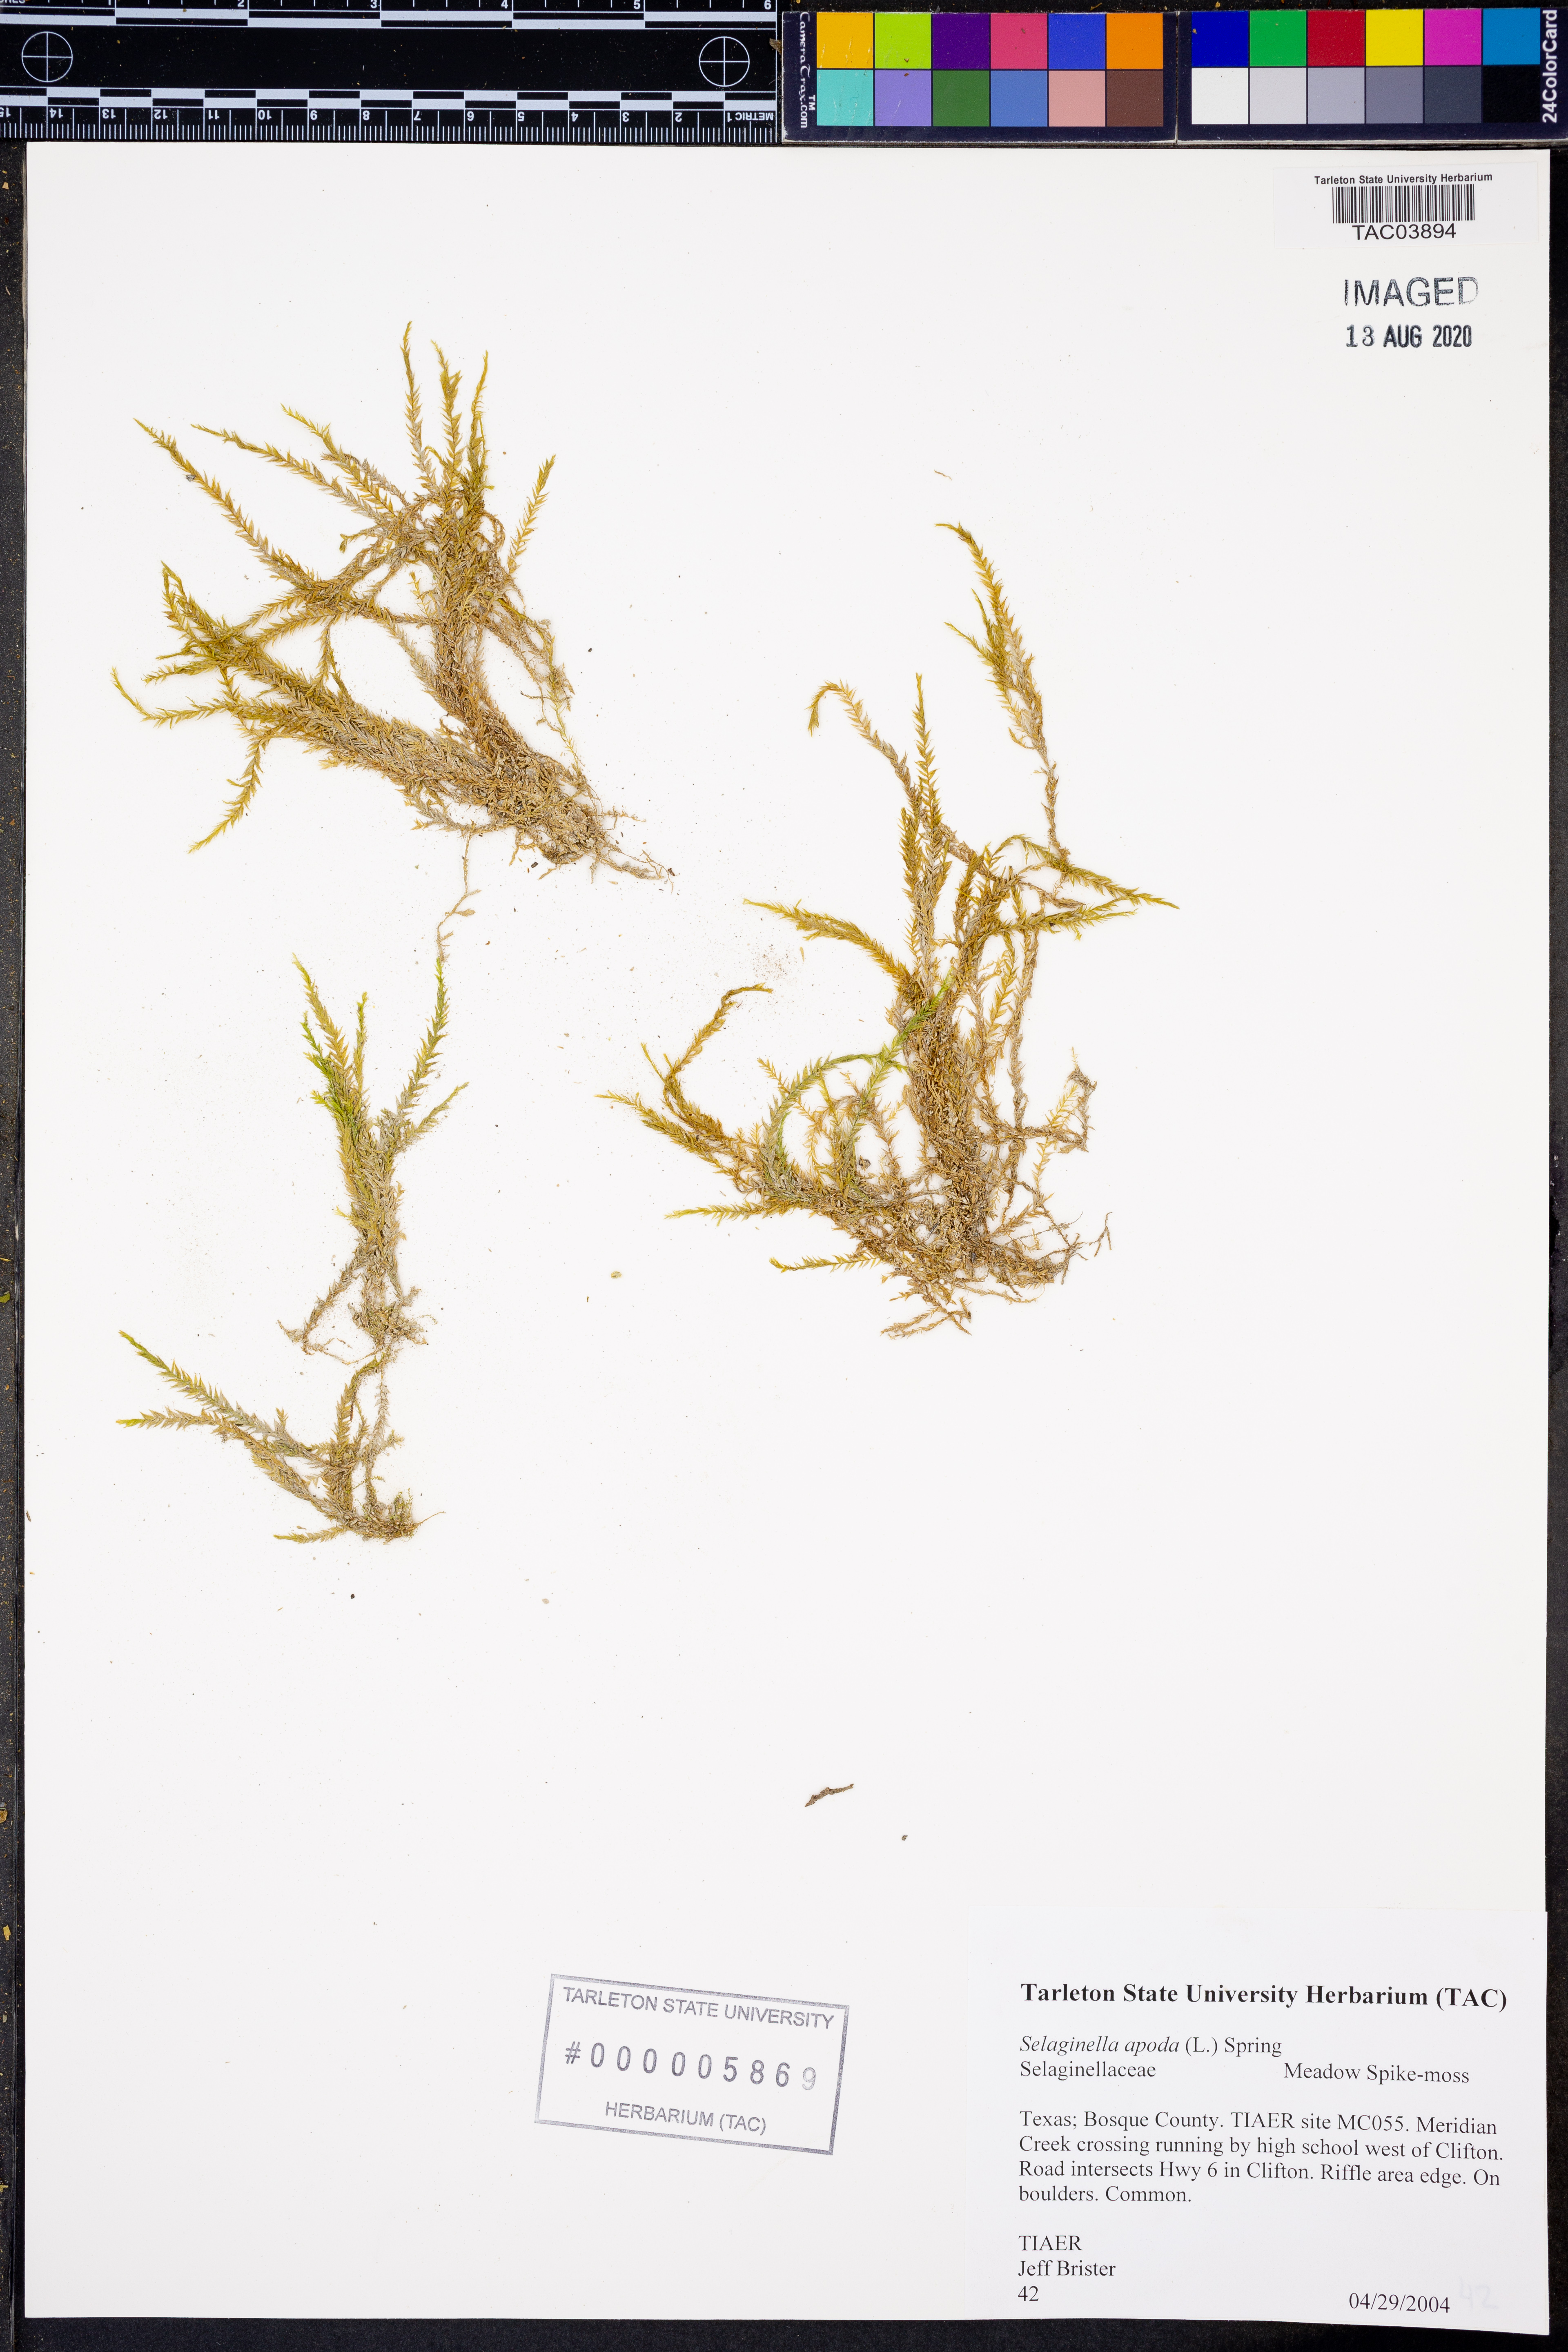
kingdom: Plantae
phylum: Tracheophyta
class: Lycopodiopsida
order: Selaginellales
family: Selaginellaceae
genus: Selaginella
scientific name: Selaginella apoda
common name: Creeping spikemoss
